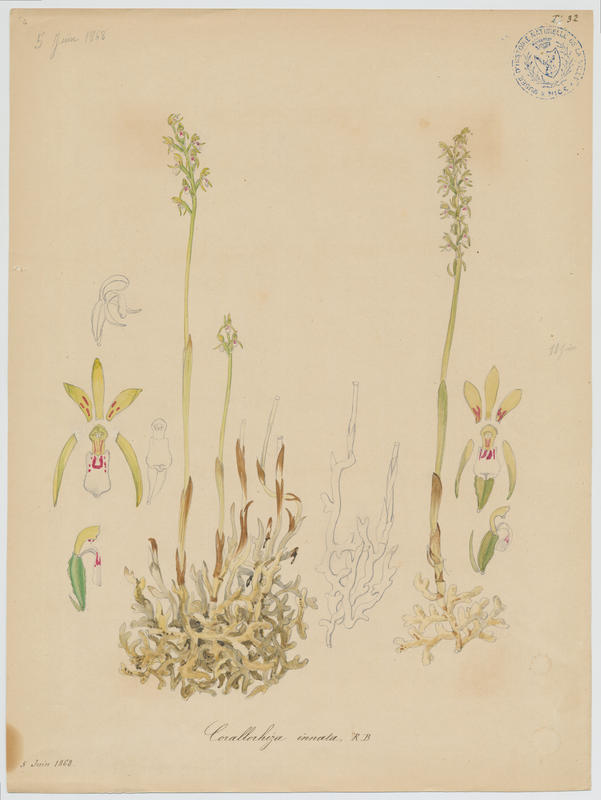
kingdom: Plantae
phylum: Tracheophyta
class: Liliopsida
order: Asparagales
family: Orchidaceae
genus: Corallorhiza
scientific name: Corallorhiza Corallorrhiza trifida
